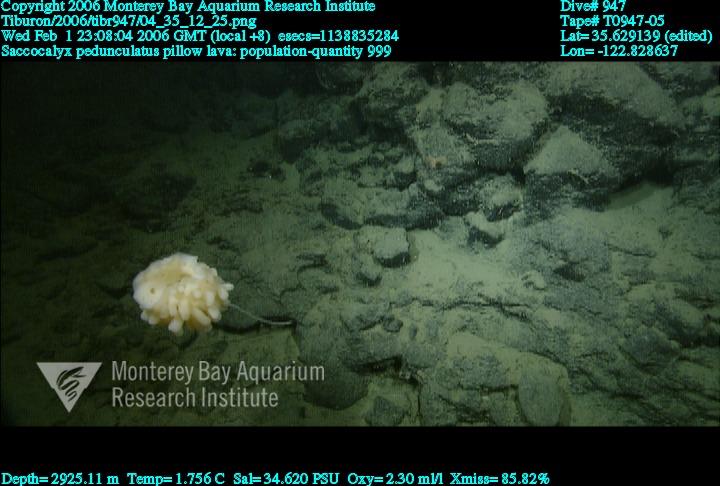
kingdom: Animalia
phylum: Porifera
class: Hexactinellida
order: Lyssacinosida
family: Euplectellidae
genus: Saccocalyx
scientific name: Saccocalyx pedunculatus
